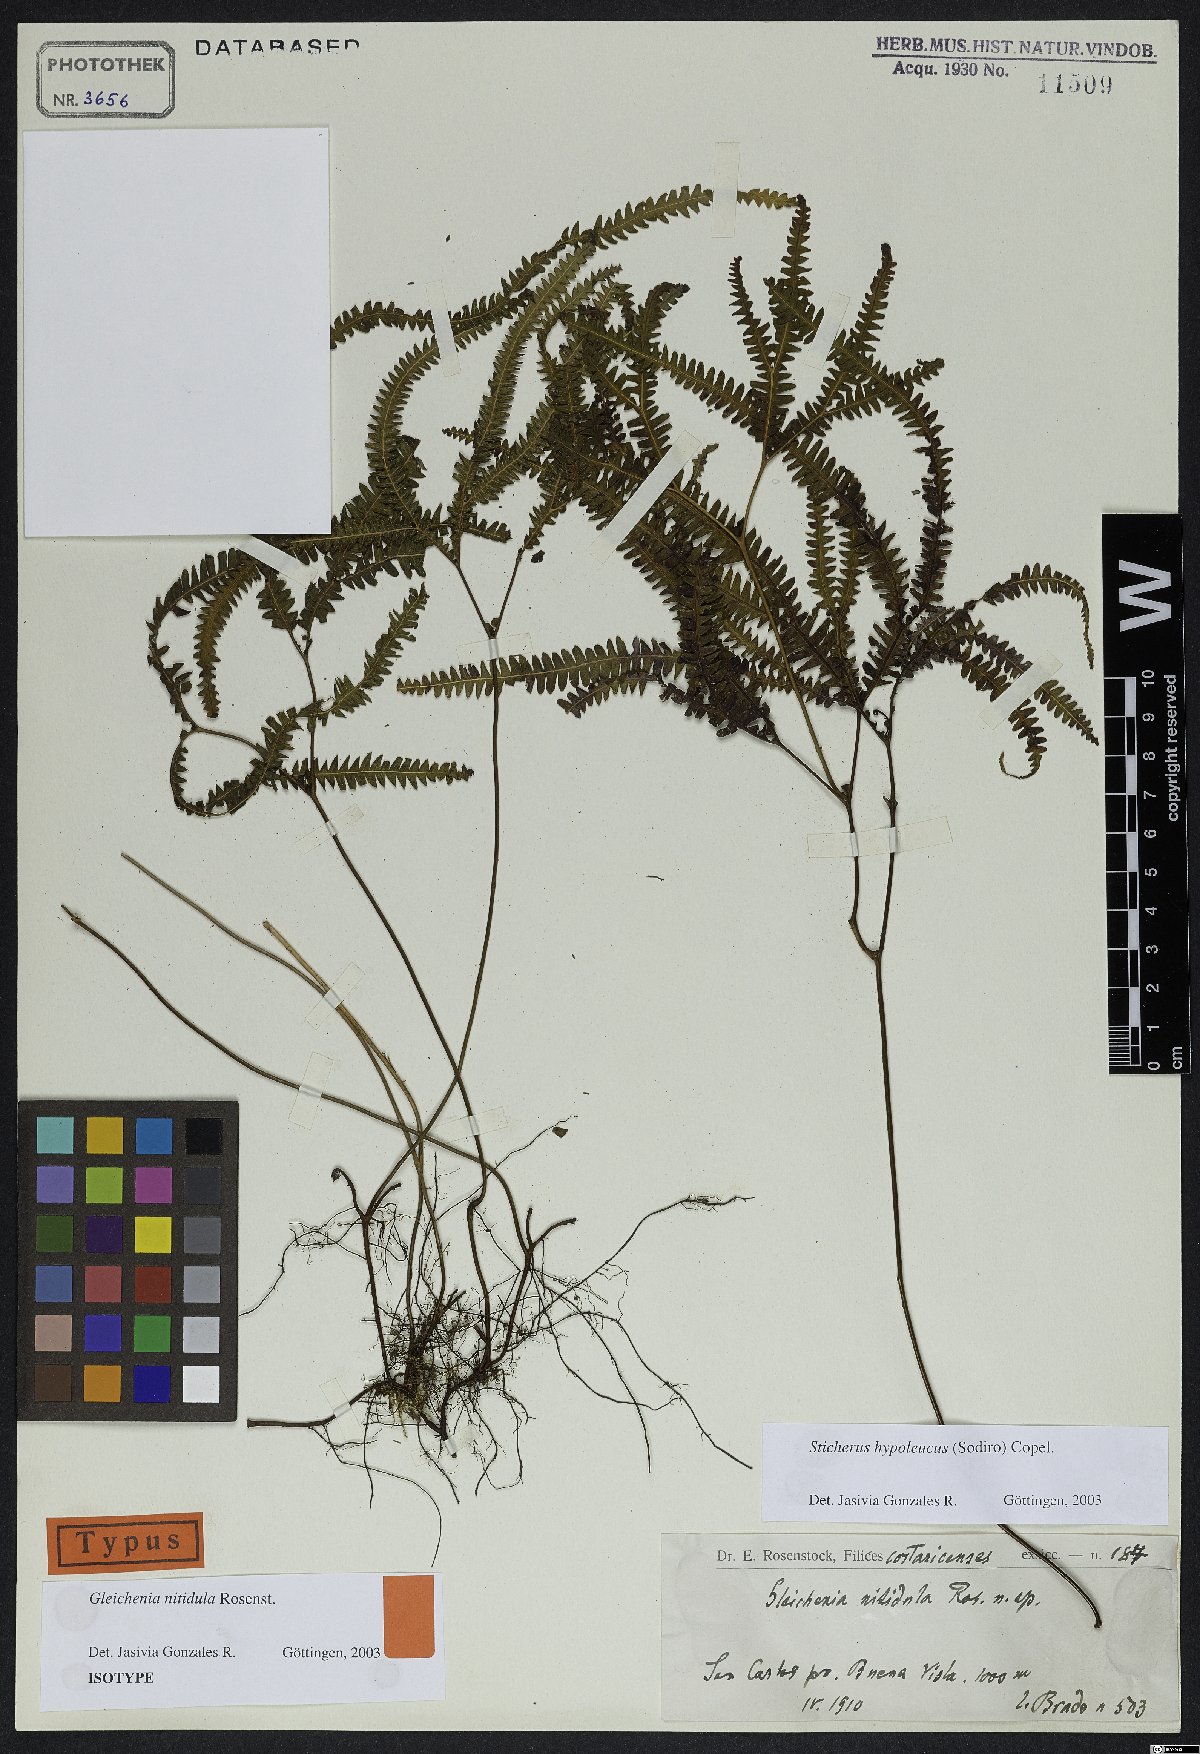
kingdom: Plantae
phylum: Tracheophyta
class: Polypodiopsida
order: Gleicheniales
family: Gleicheniaceae
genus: Sticherus
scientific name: Sticherus hypoleucus
